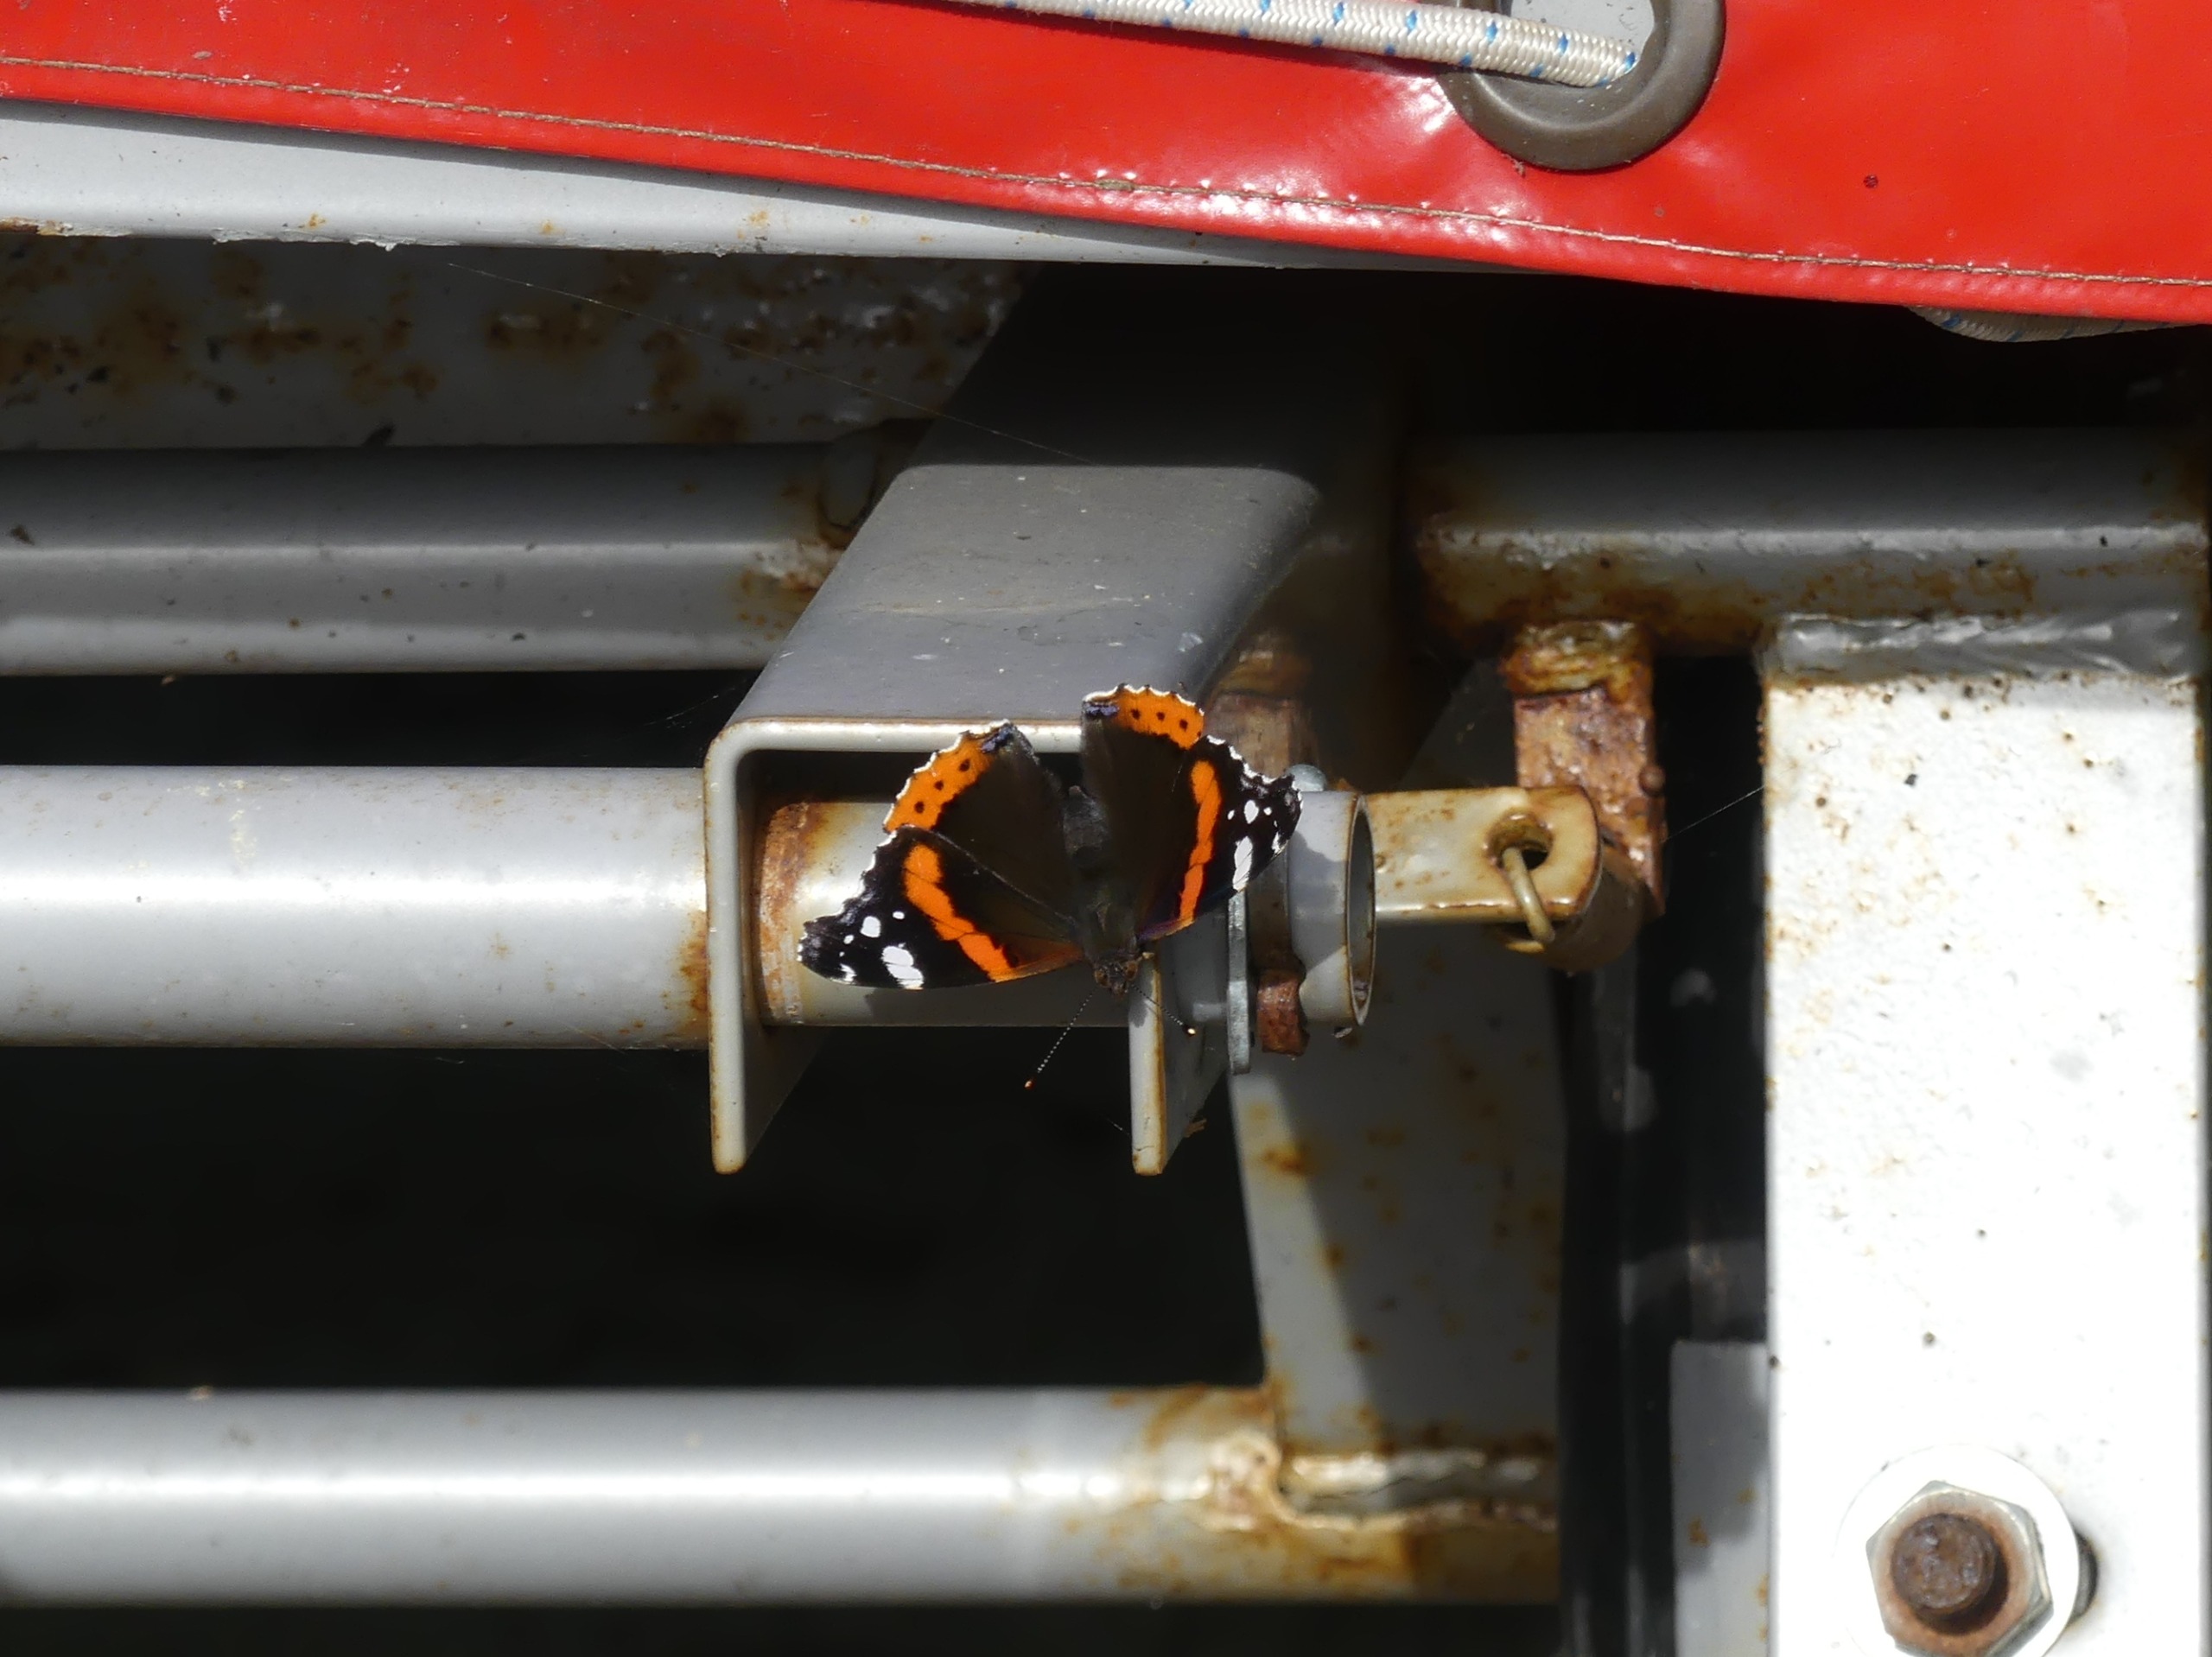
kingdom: Animalia
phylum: Arthropoda
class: Insecta
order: Lepidoptera
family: Nymphalidae
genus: Vanessa
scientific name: Vanessa atalanta
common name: Admiral
